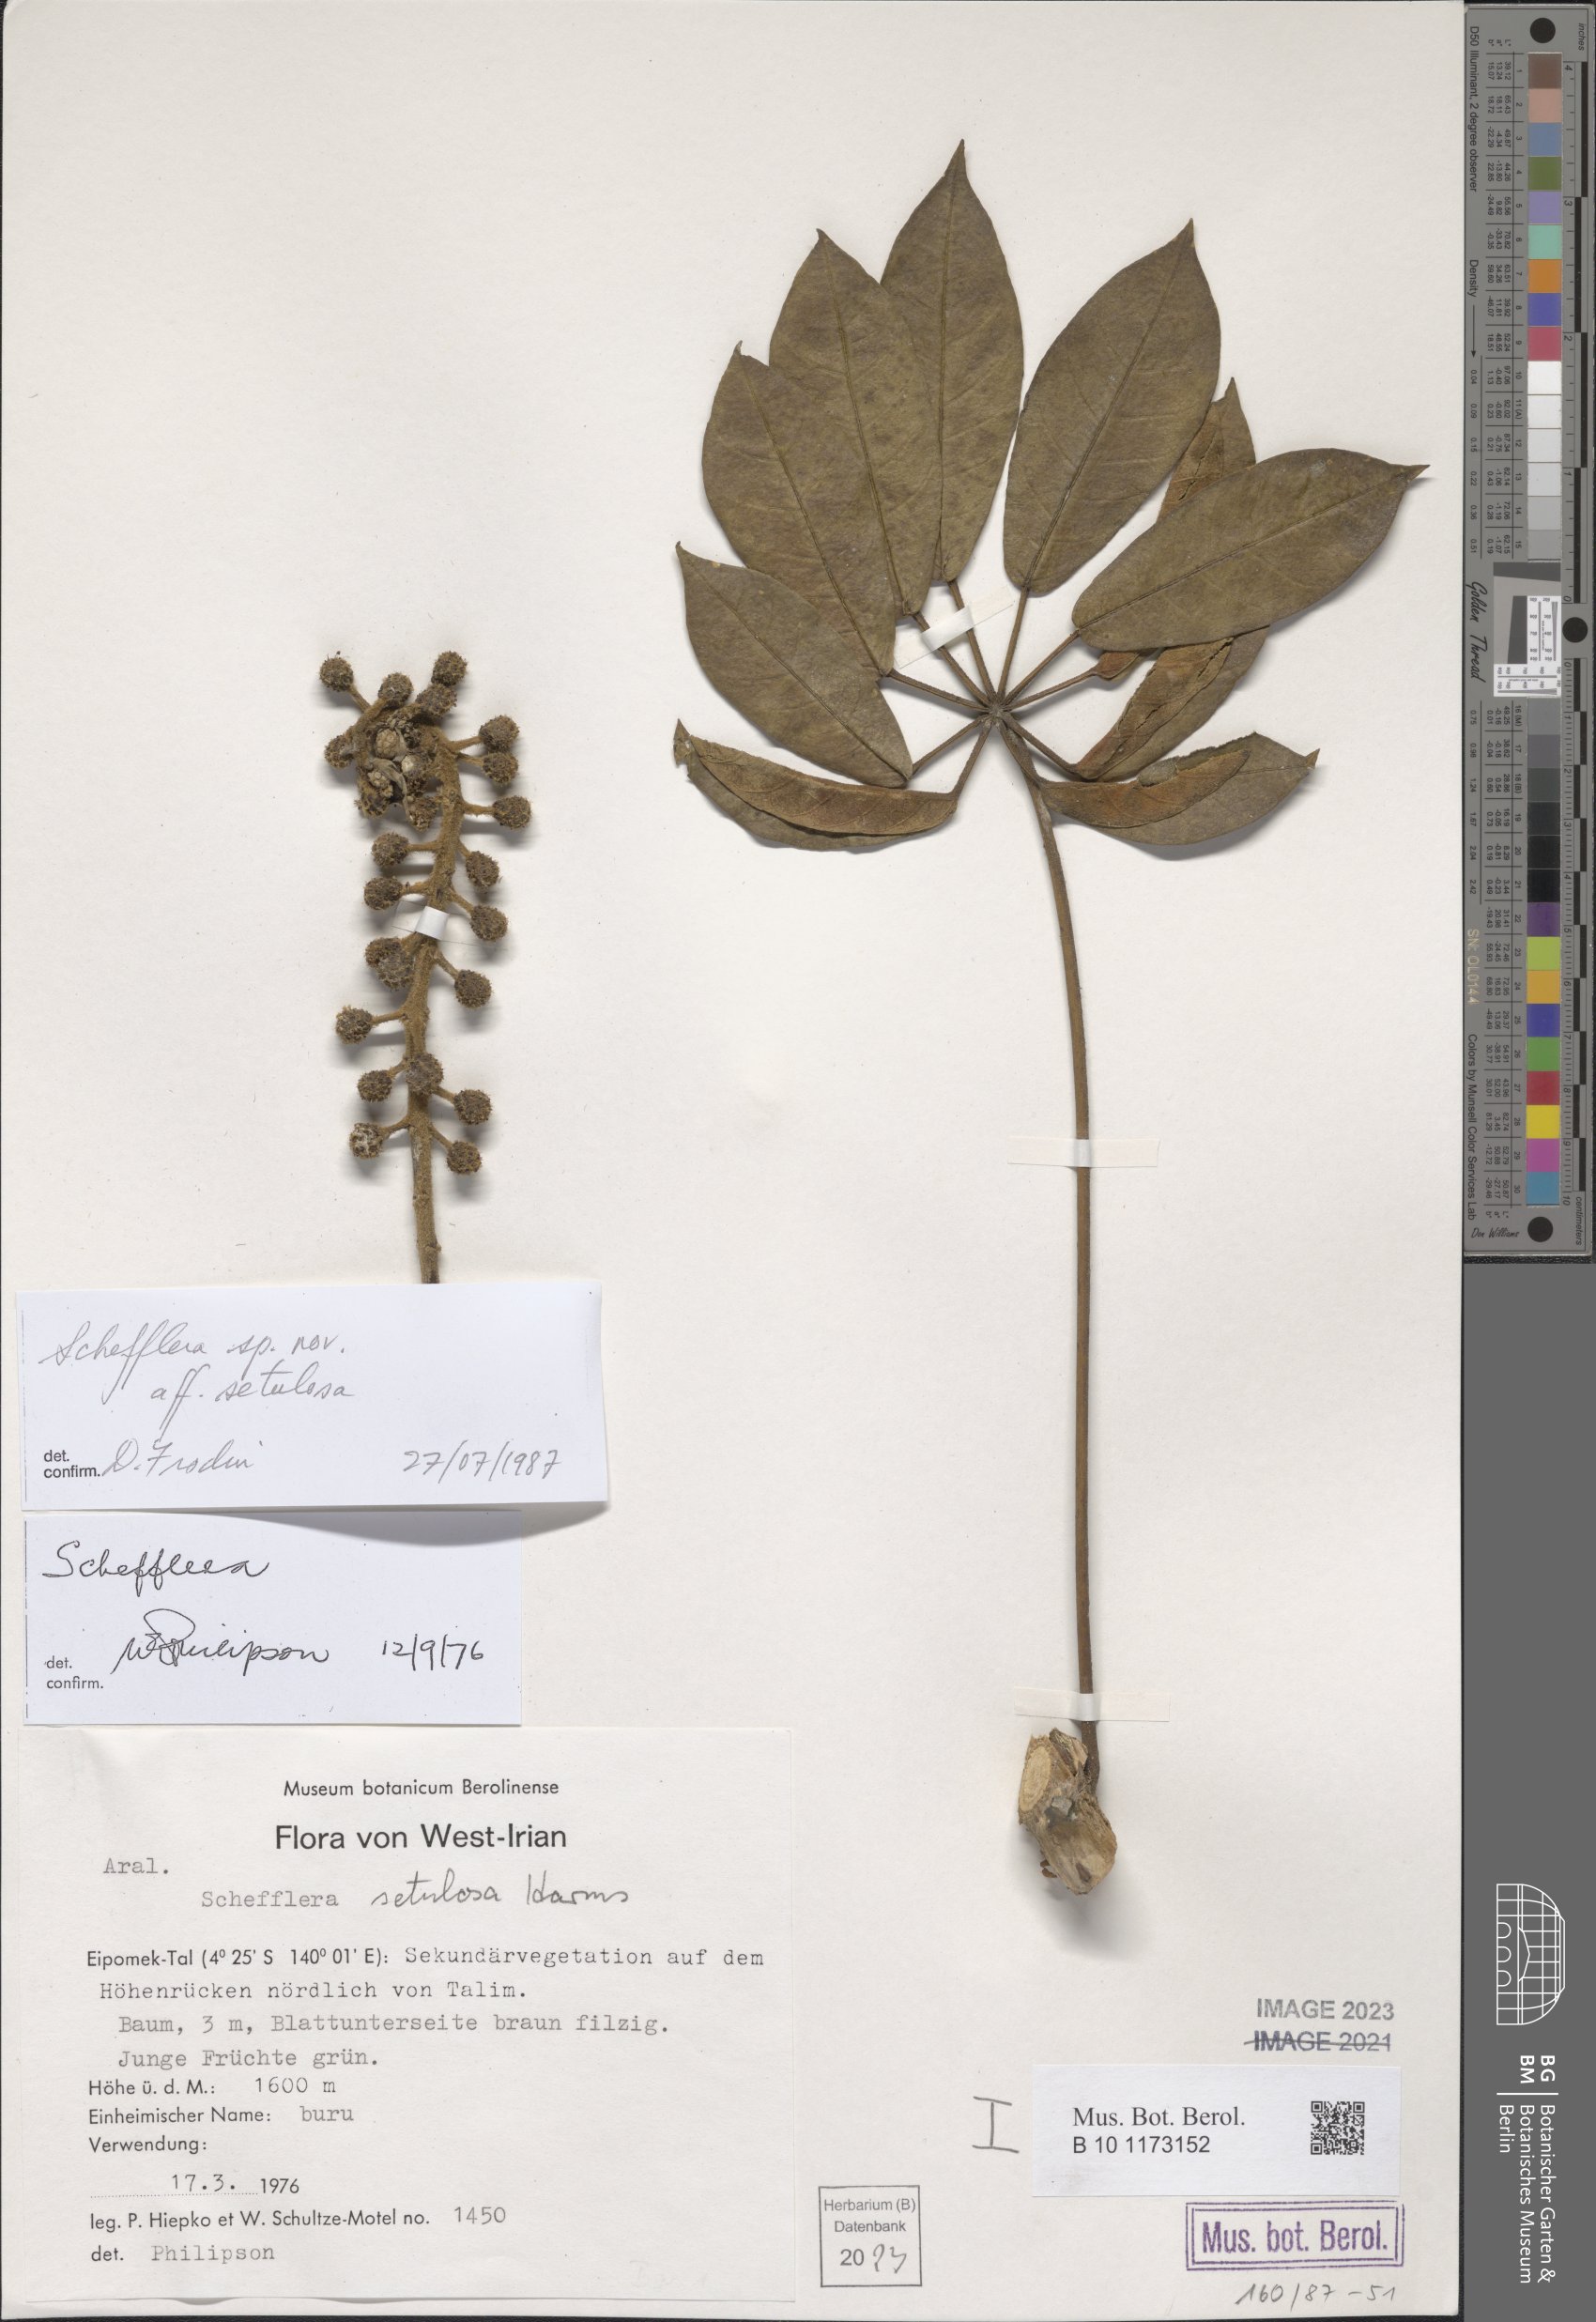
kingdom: Plantae
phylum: Tracheophyta
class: Magnoliopsida
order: Apiales
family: Araliaceae
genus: Schefflera
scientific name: Schefflera
